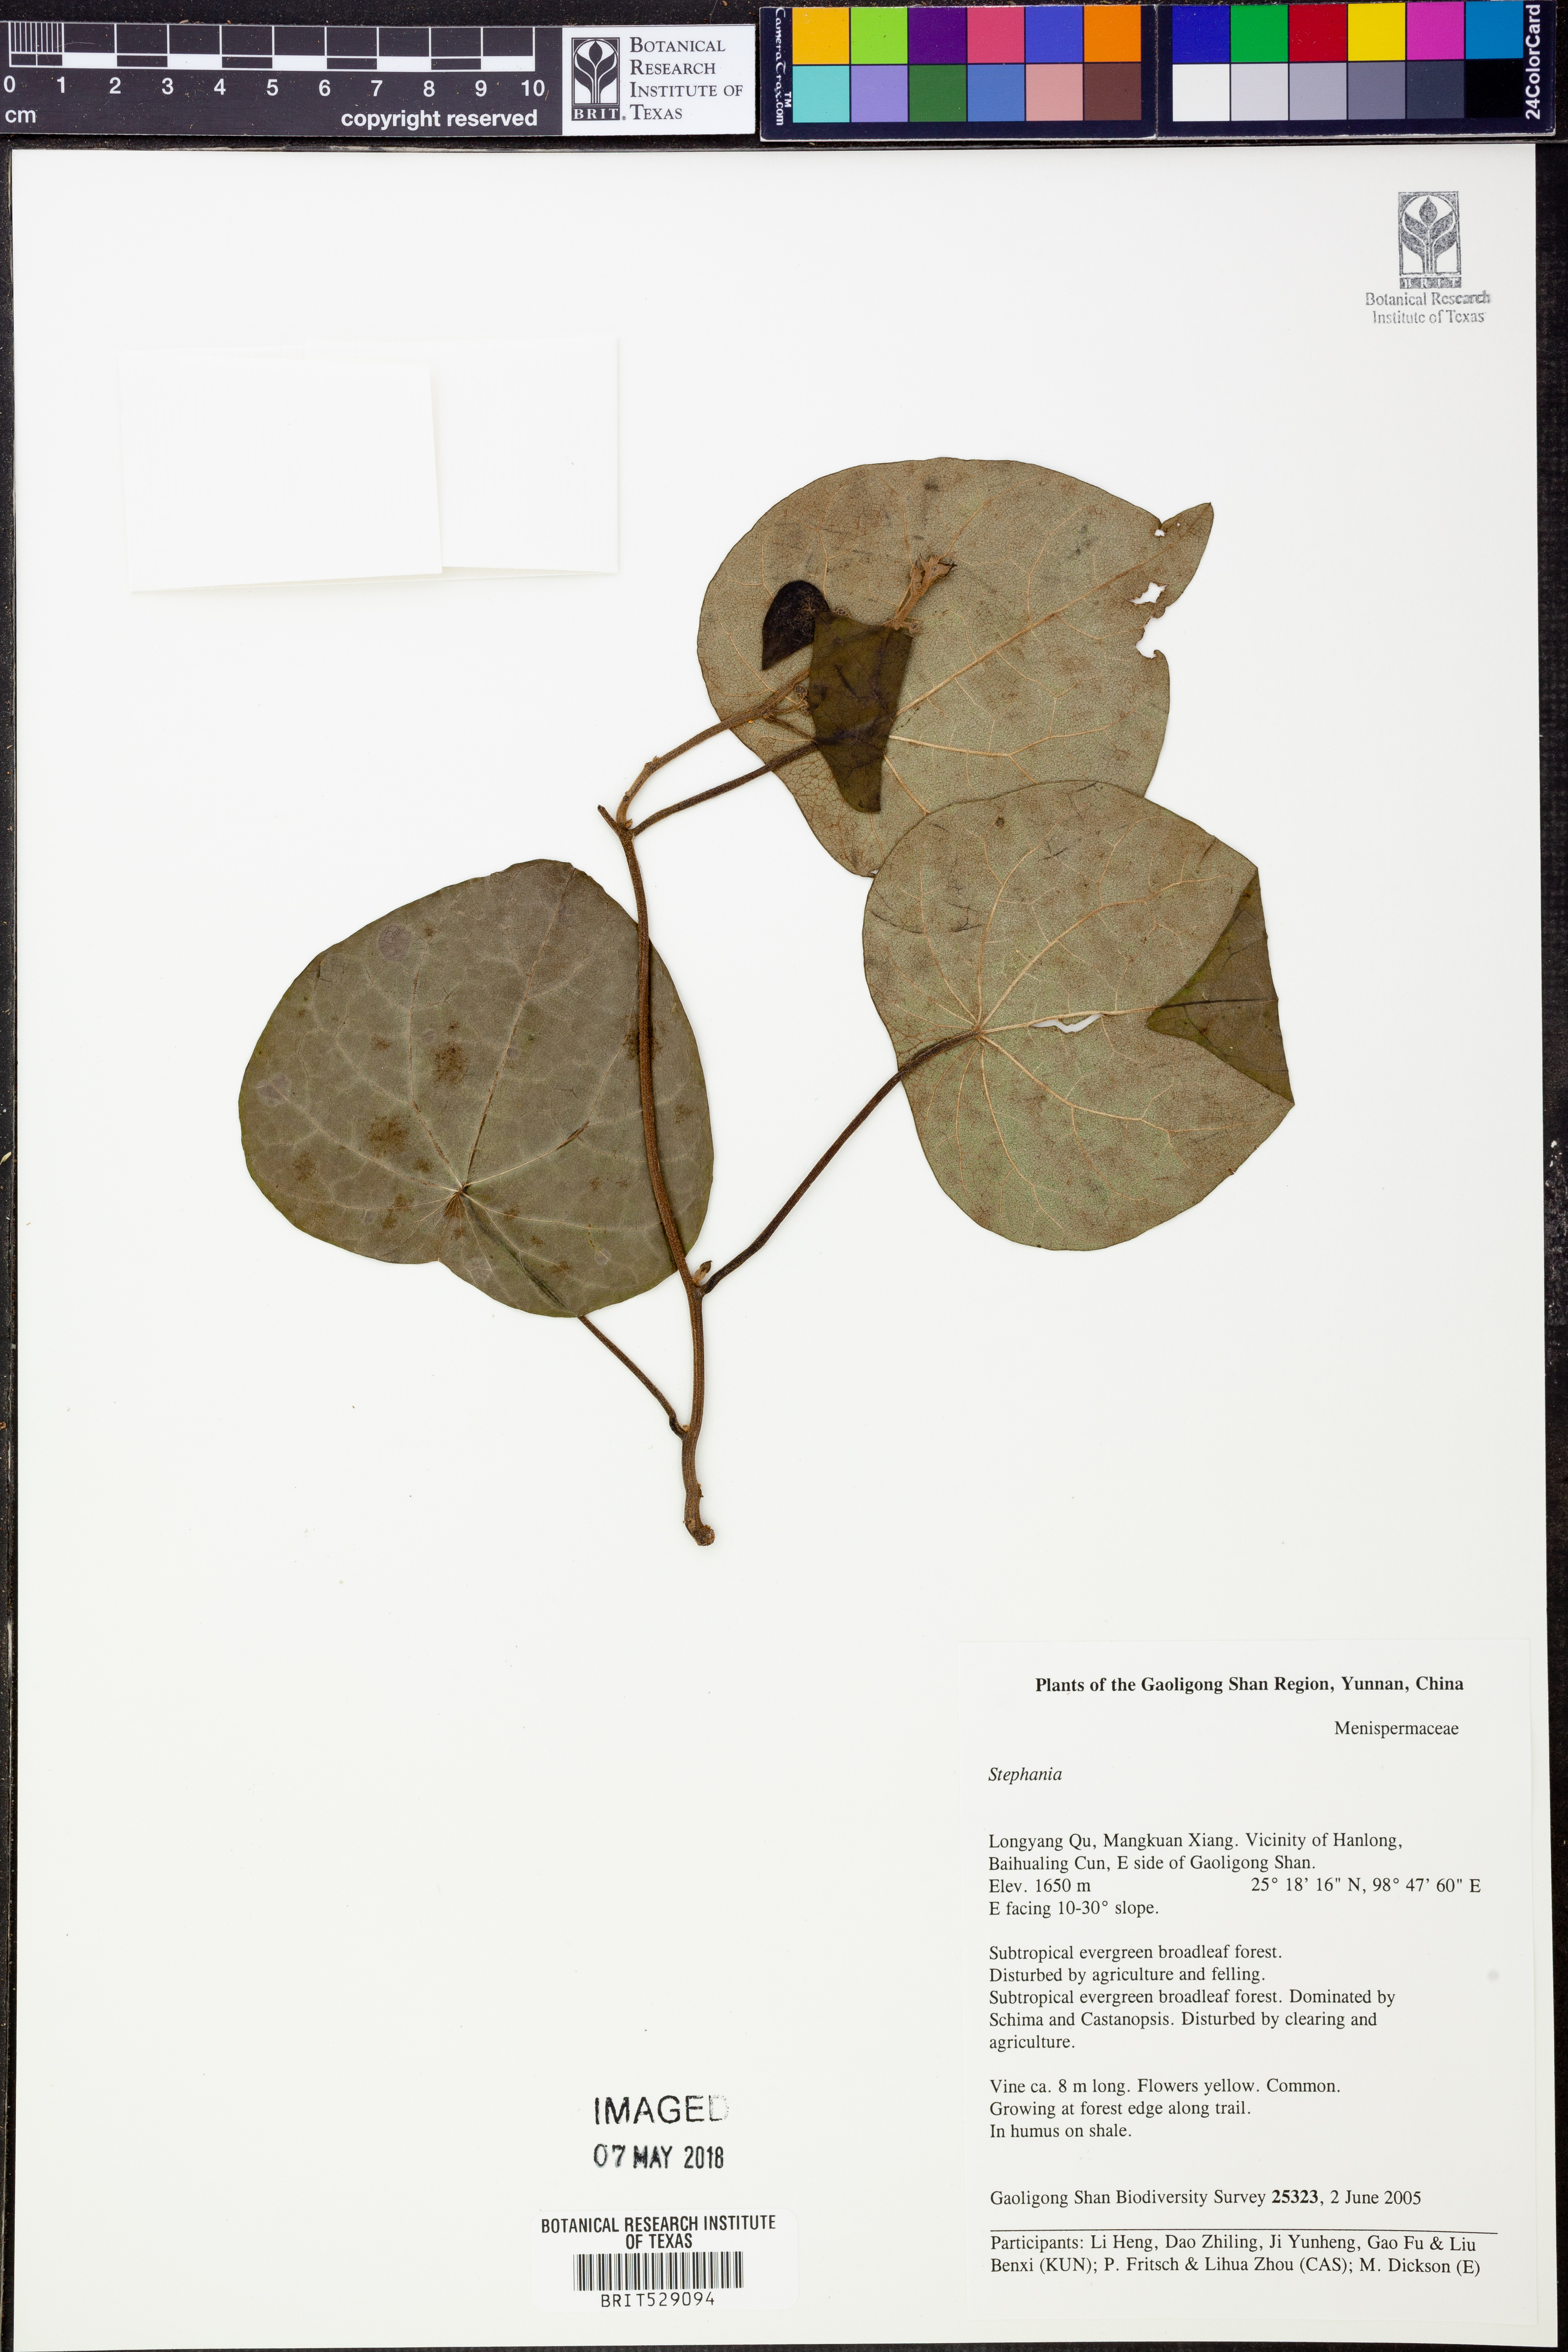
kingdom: Plantae
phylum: Tracheophyta
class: Magnoliopsida
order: Ranunculales
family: Menispermaceae
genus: Stephania
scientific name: Stephania
